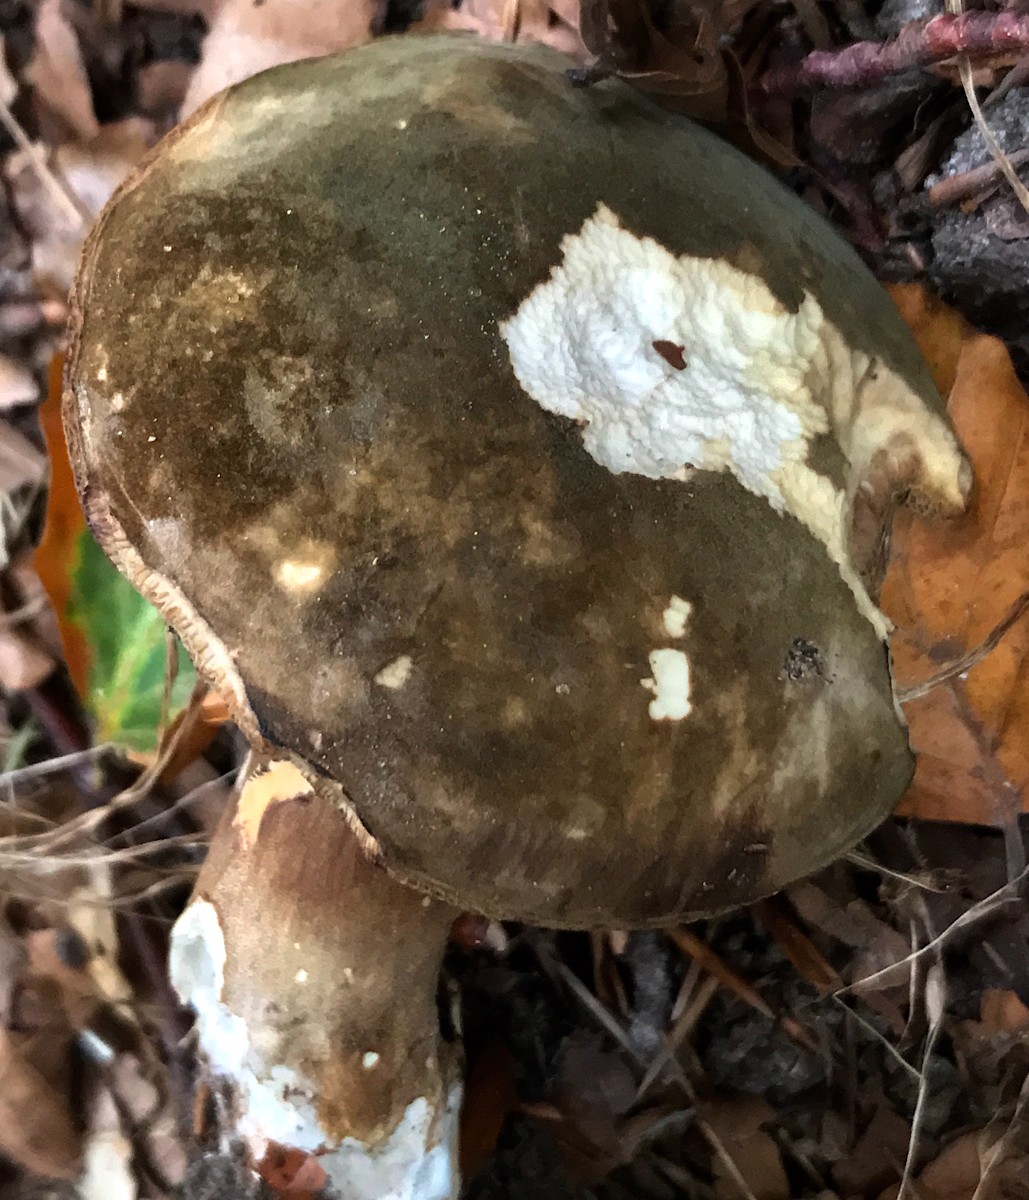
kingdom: Fungi
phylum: Basidiomycota
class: Agaricomycetes
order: Boletales
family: Boletaceae
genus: Porphyrellus
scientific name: Porphyrellus porphyrosporus
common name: sodrørhat
